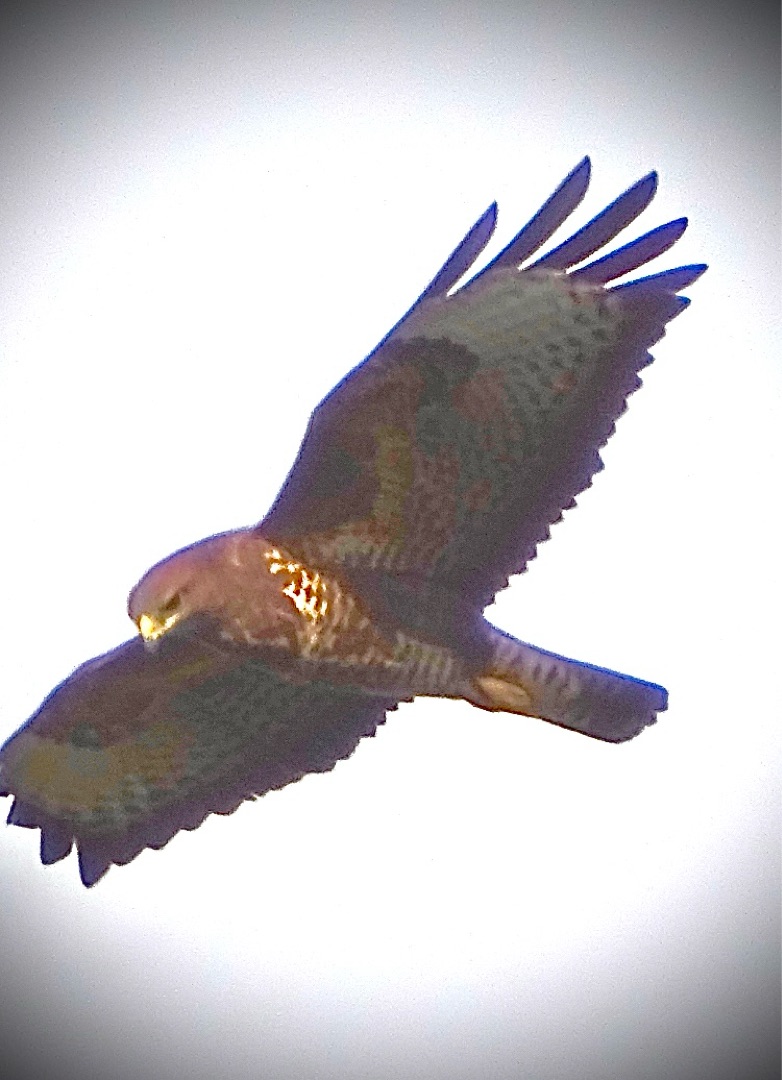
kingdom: Animalia
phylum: Chordata
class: Aves
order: Accipitriformes
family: Accipitridae
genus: Buteo
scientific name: Buteo buteo
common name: Musvåge
